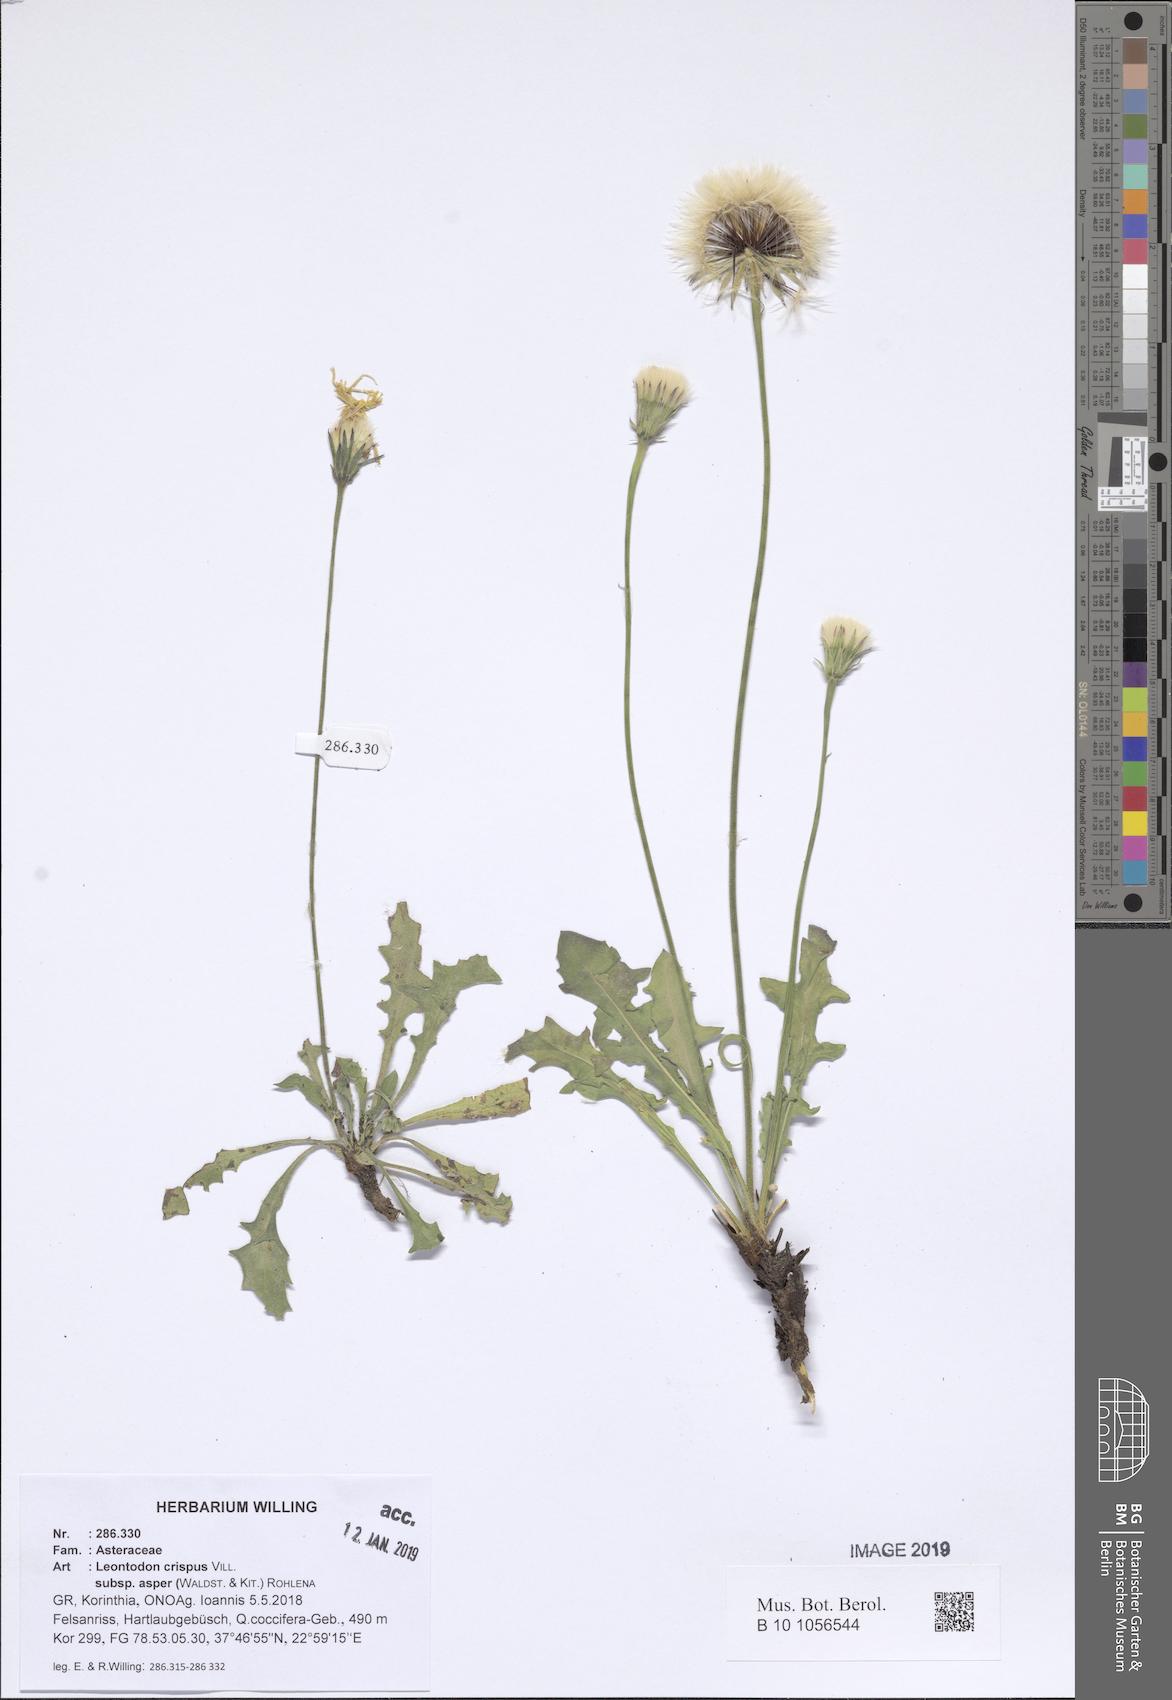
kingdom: Plantae
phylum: Tracheophyta
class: Magnoliopsida
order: Asterales
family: Asteraceae
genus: Leontodon
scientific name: Leontodon biscutellifolius
